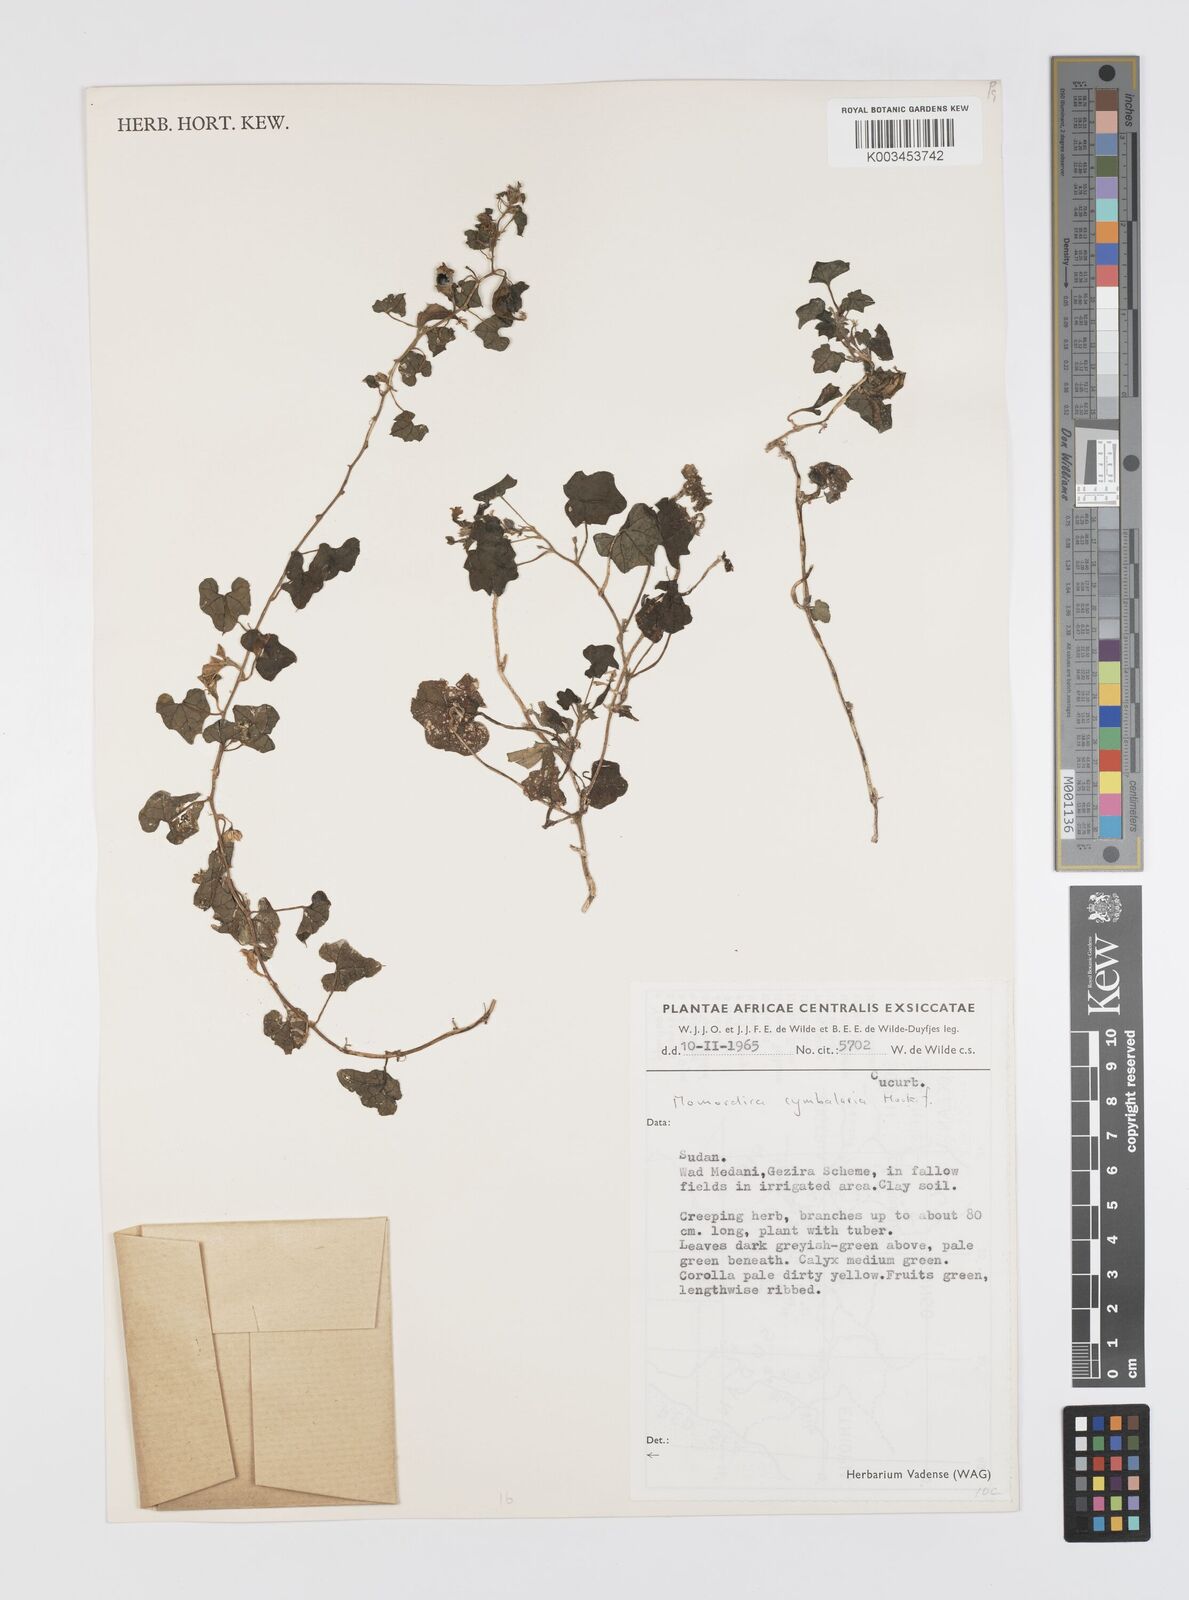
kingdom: Plantae
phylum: Tracheophyta
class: Magnoliopsida
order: Cucurbitales
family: Cucurbitaceae
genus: Momordica
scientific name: Momordica multiflora
